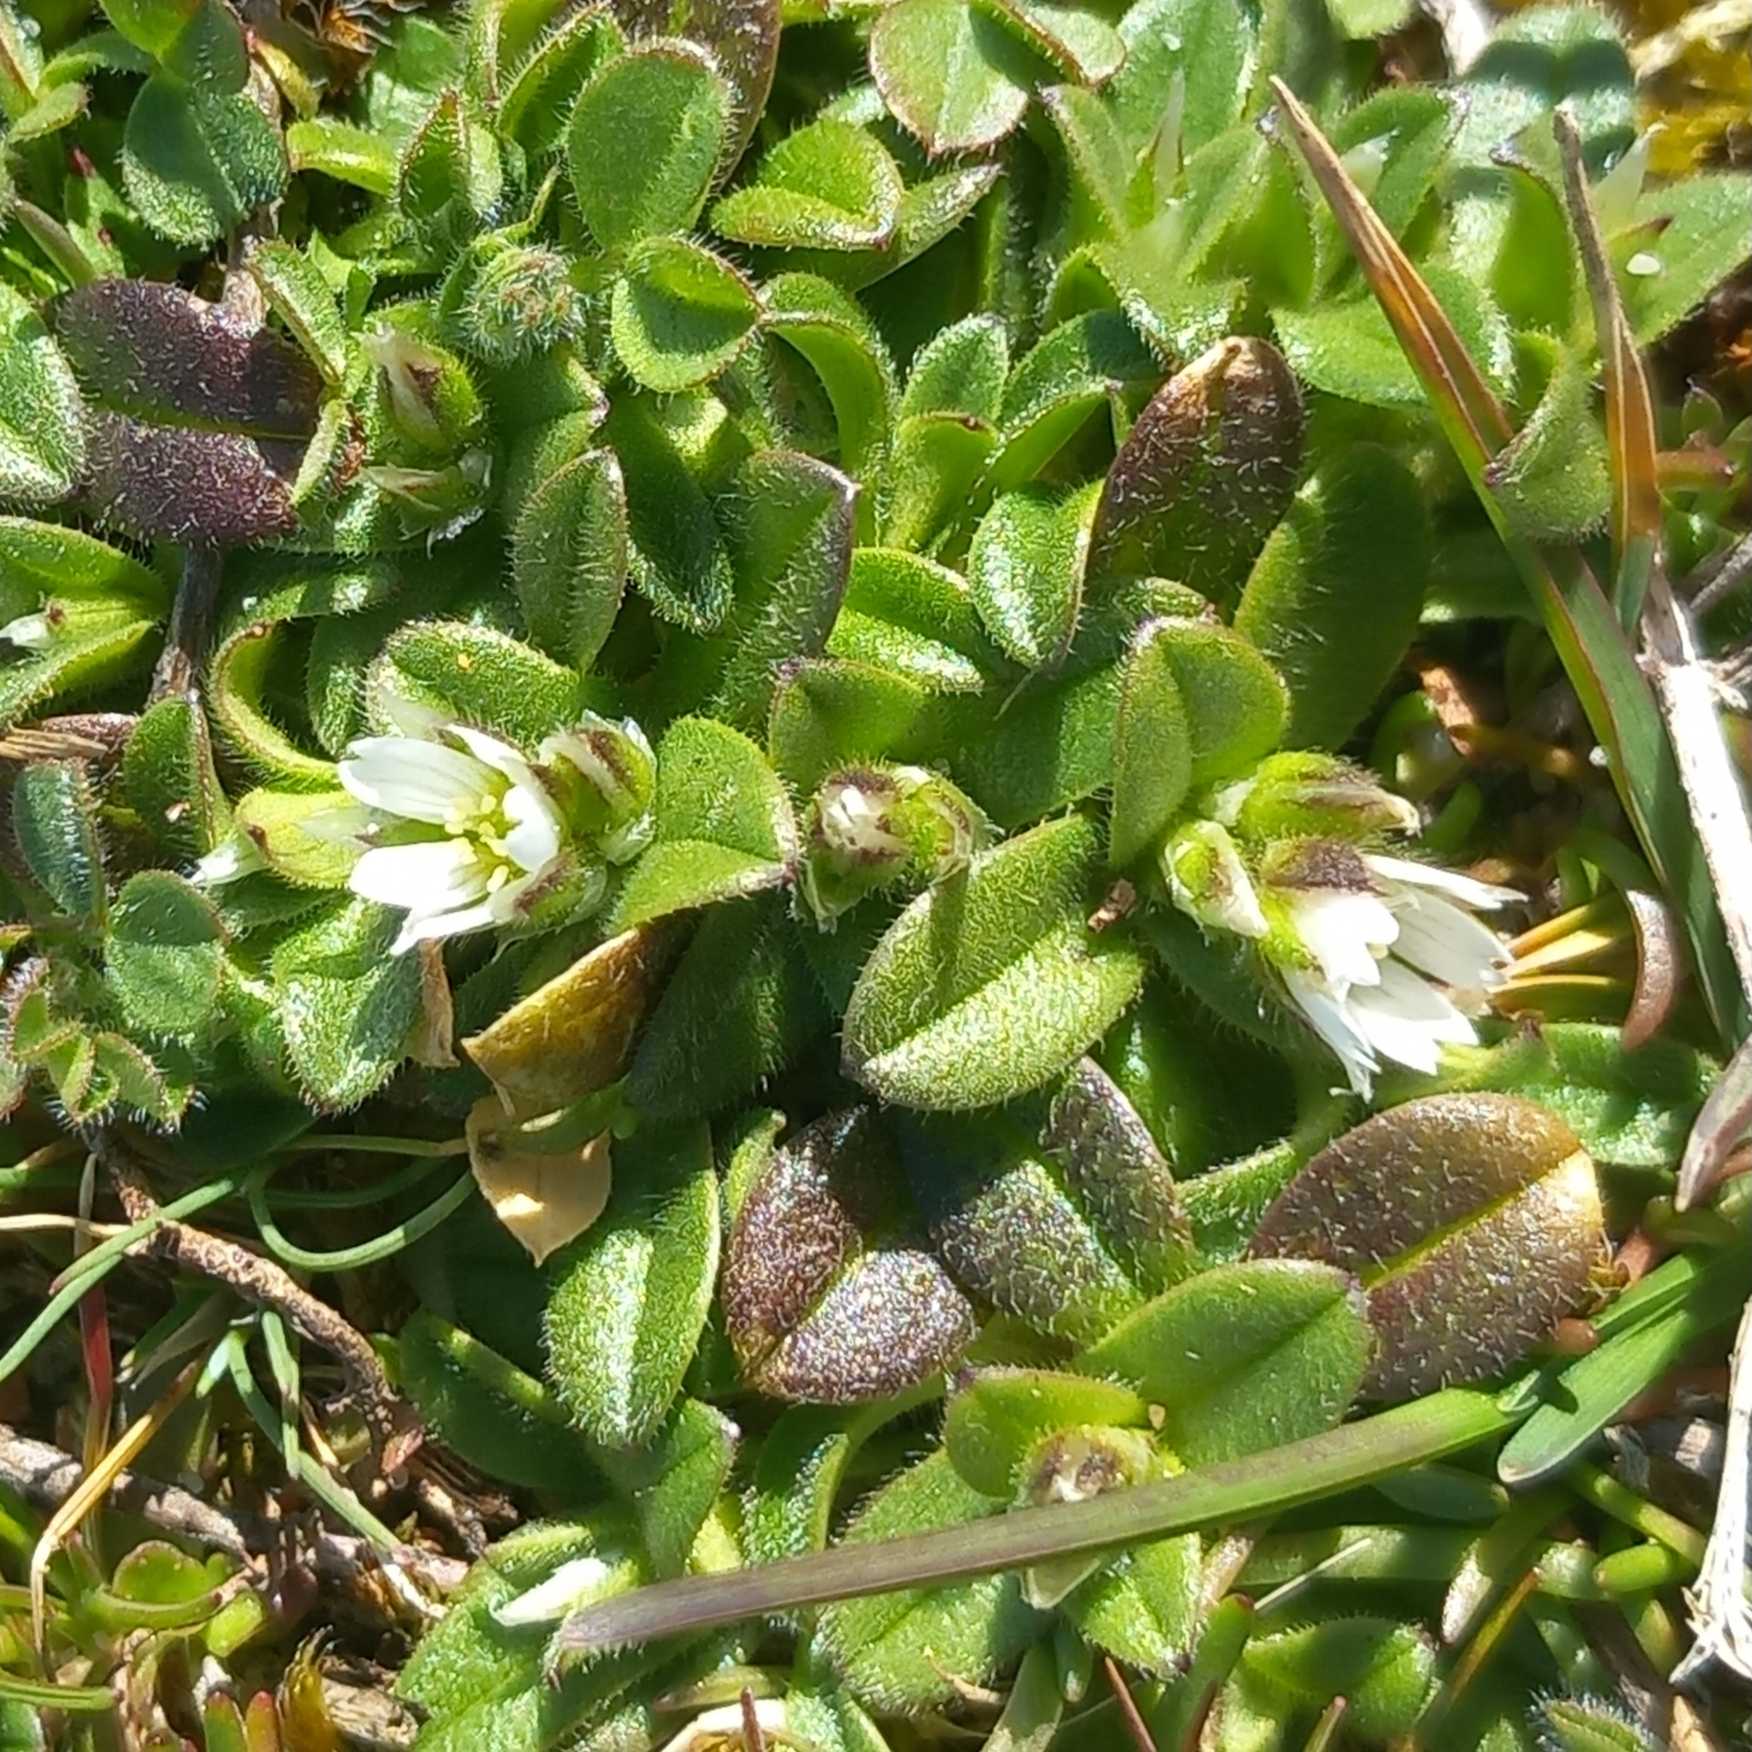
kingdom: Plantae
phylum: Tracheophyta
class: Magnoliopsida
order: Caryophyllales
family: Caryophyllaceae
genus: Cerastium
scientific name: Cerastium semidecandrum
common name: Femhannet hønsetarm
